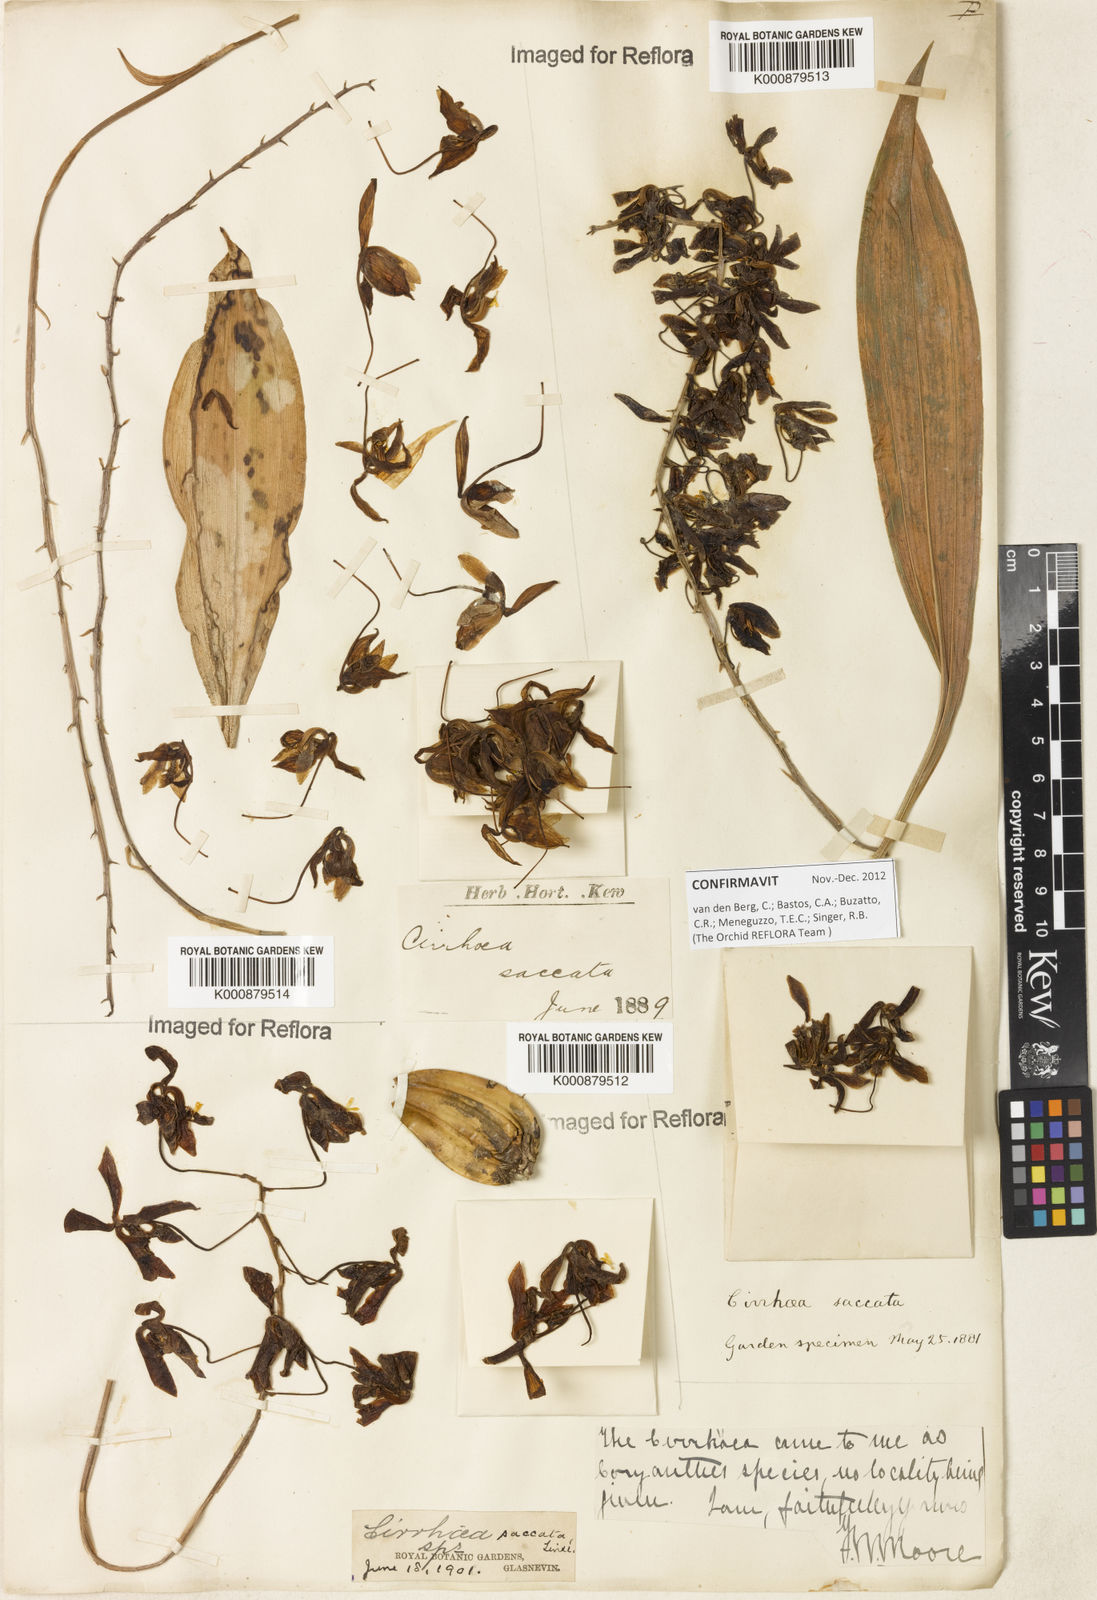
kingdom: Plantae
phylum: Tracheophyta
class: Liliopsida
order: Asparagales
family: Orchidaceae
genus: Cirrhaea
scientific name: Cirrhaea fuscolutea
